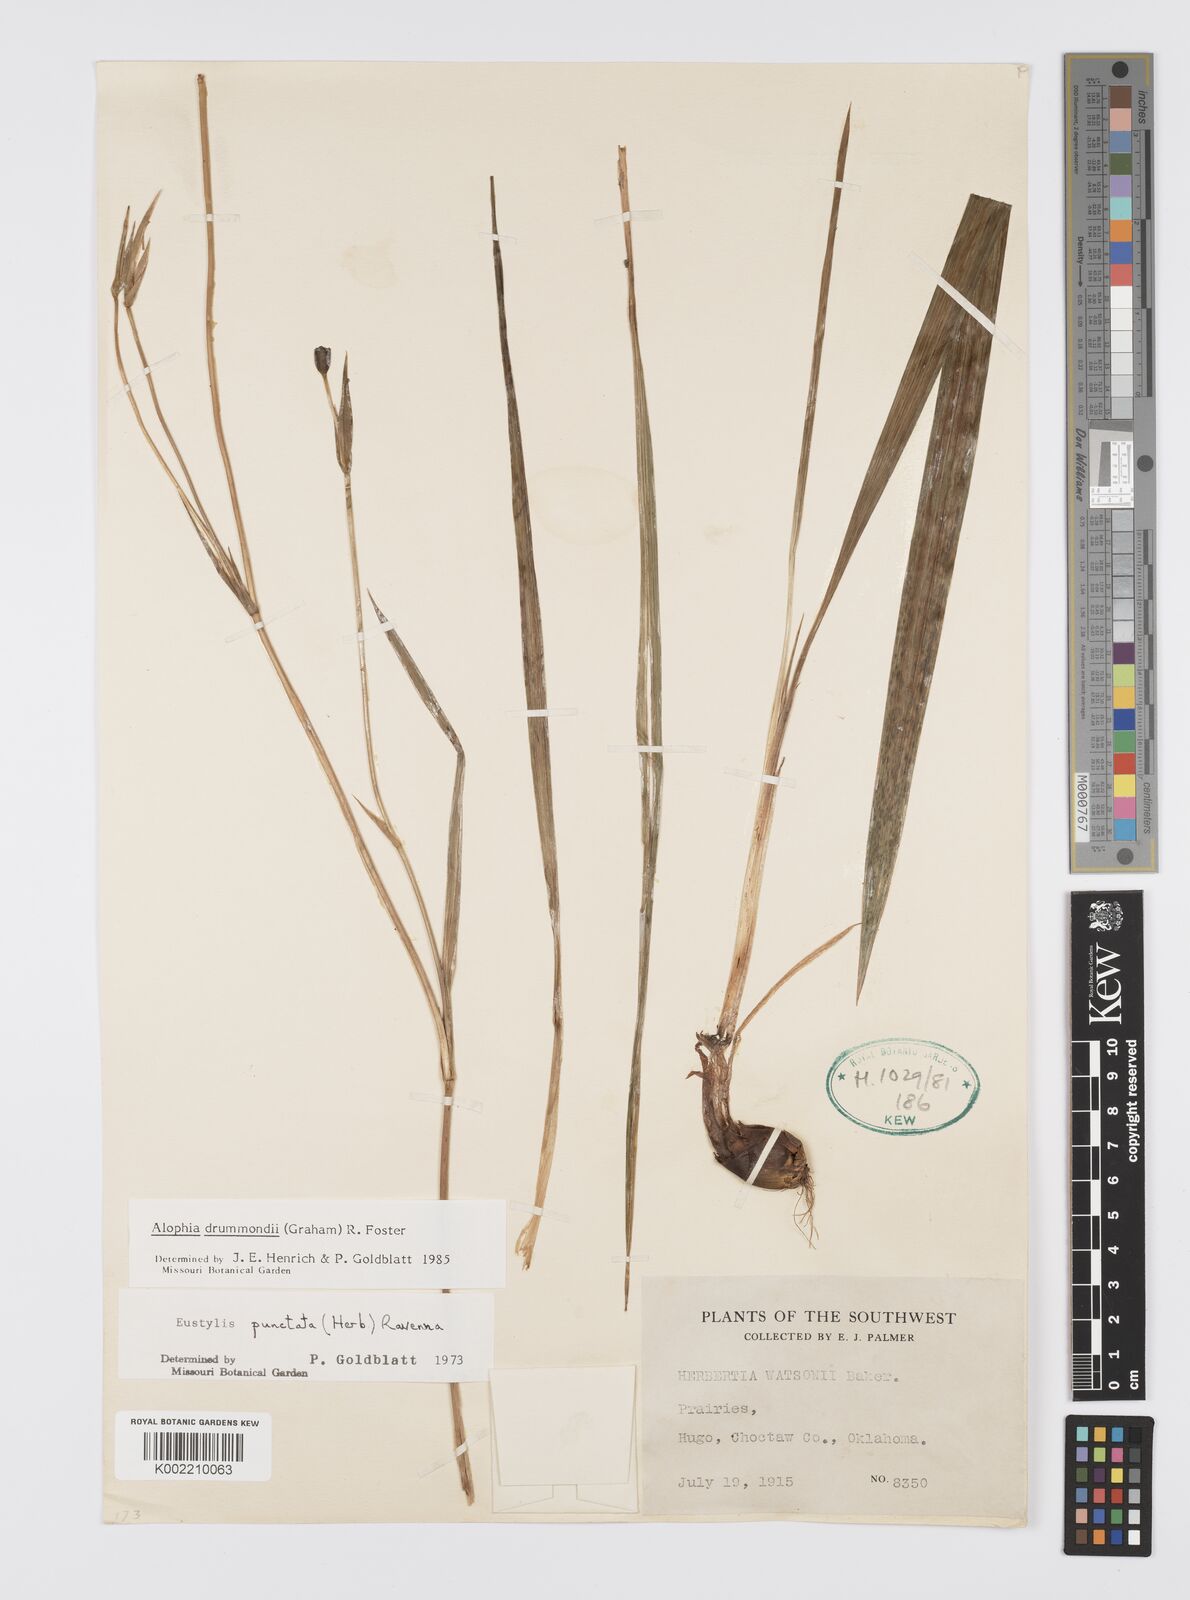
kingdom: Plantae
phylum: Tracheophyta
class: Liliopsida
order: Asparagales
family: Iridaceae
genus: Alophia
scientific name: Alophia drummondii
